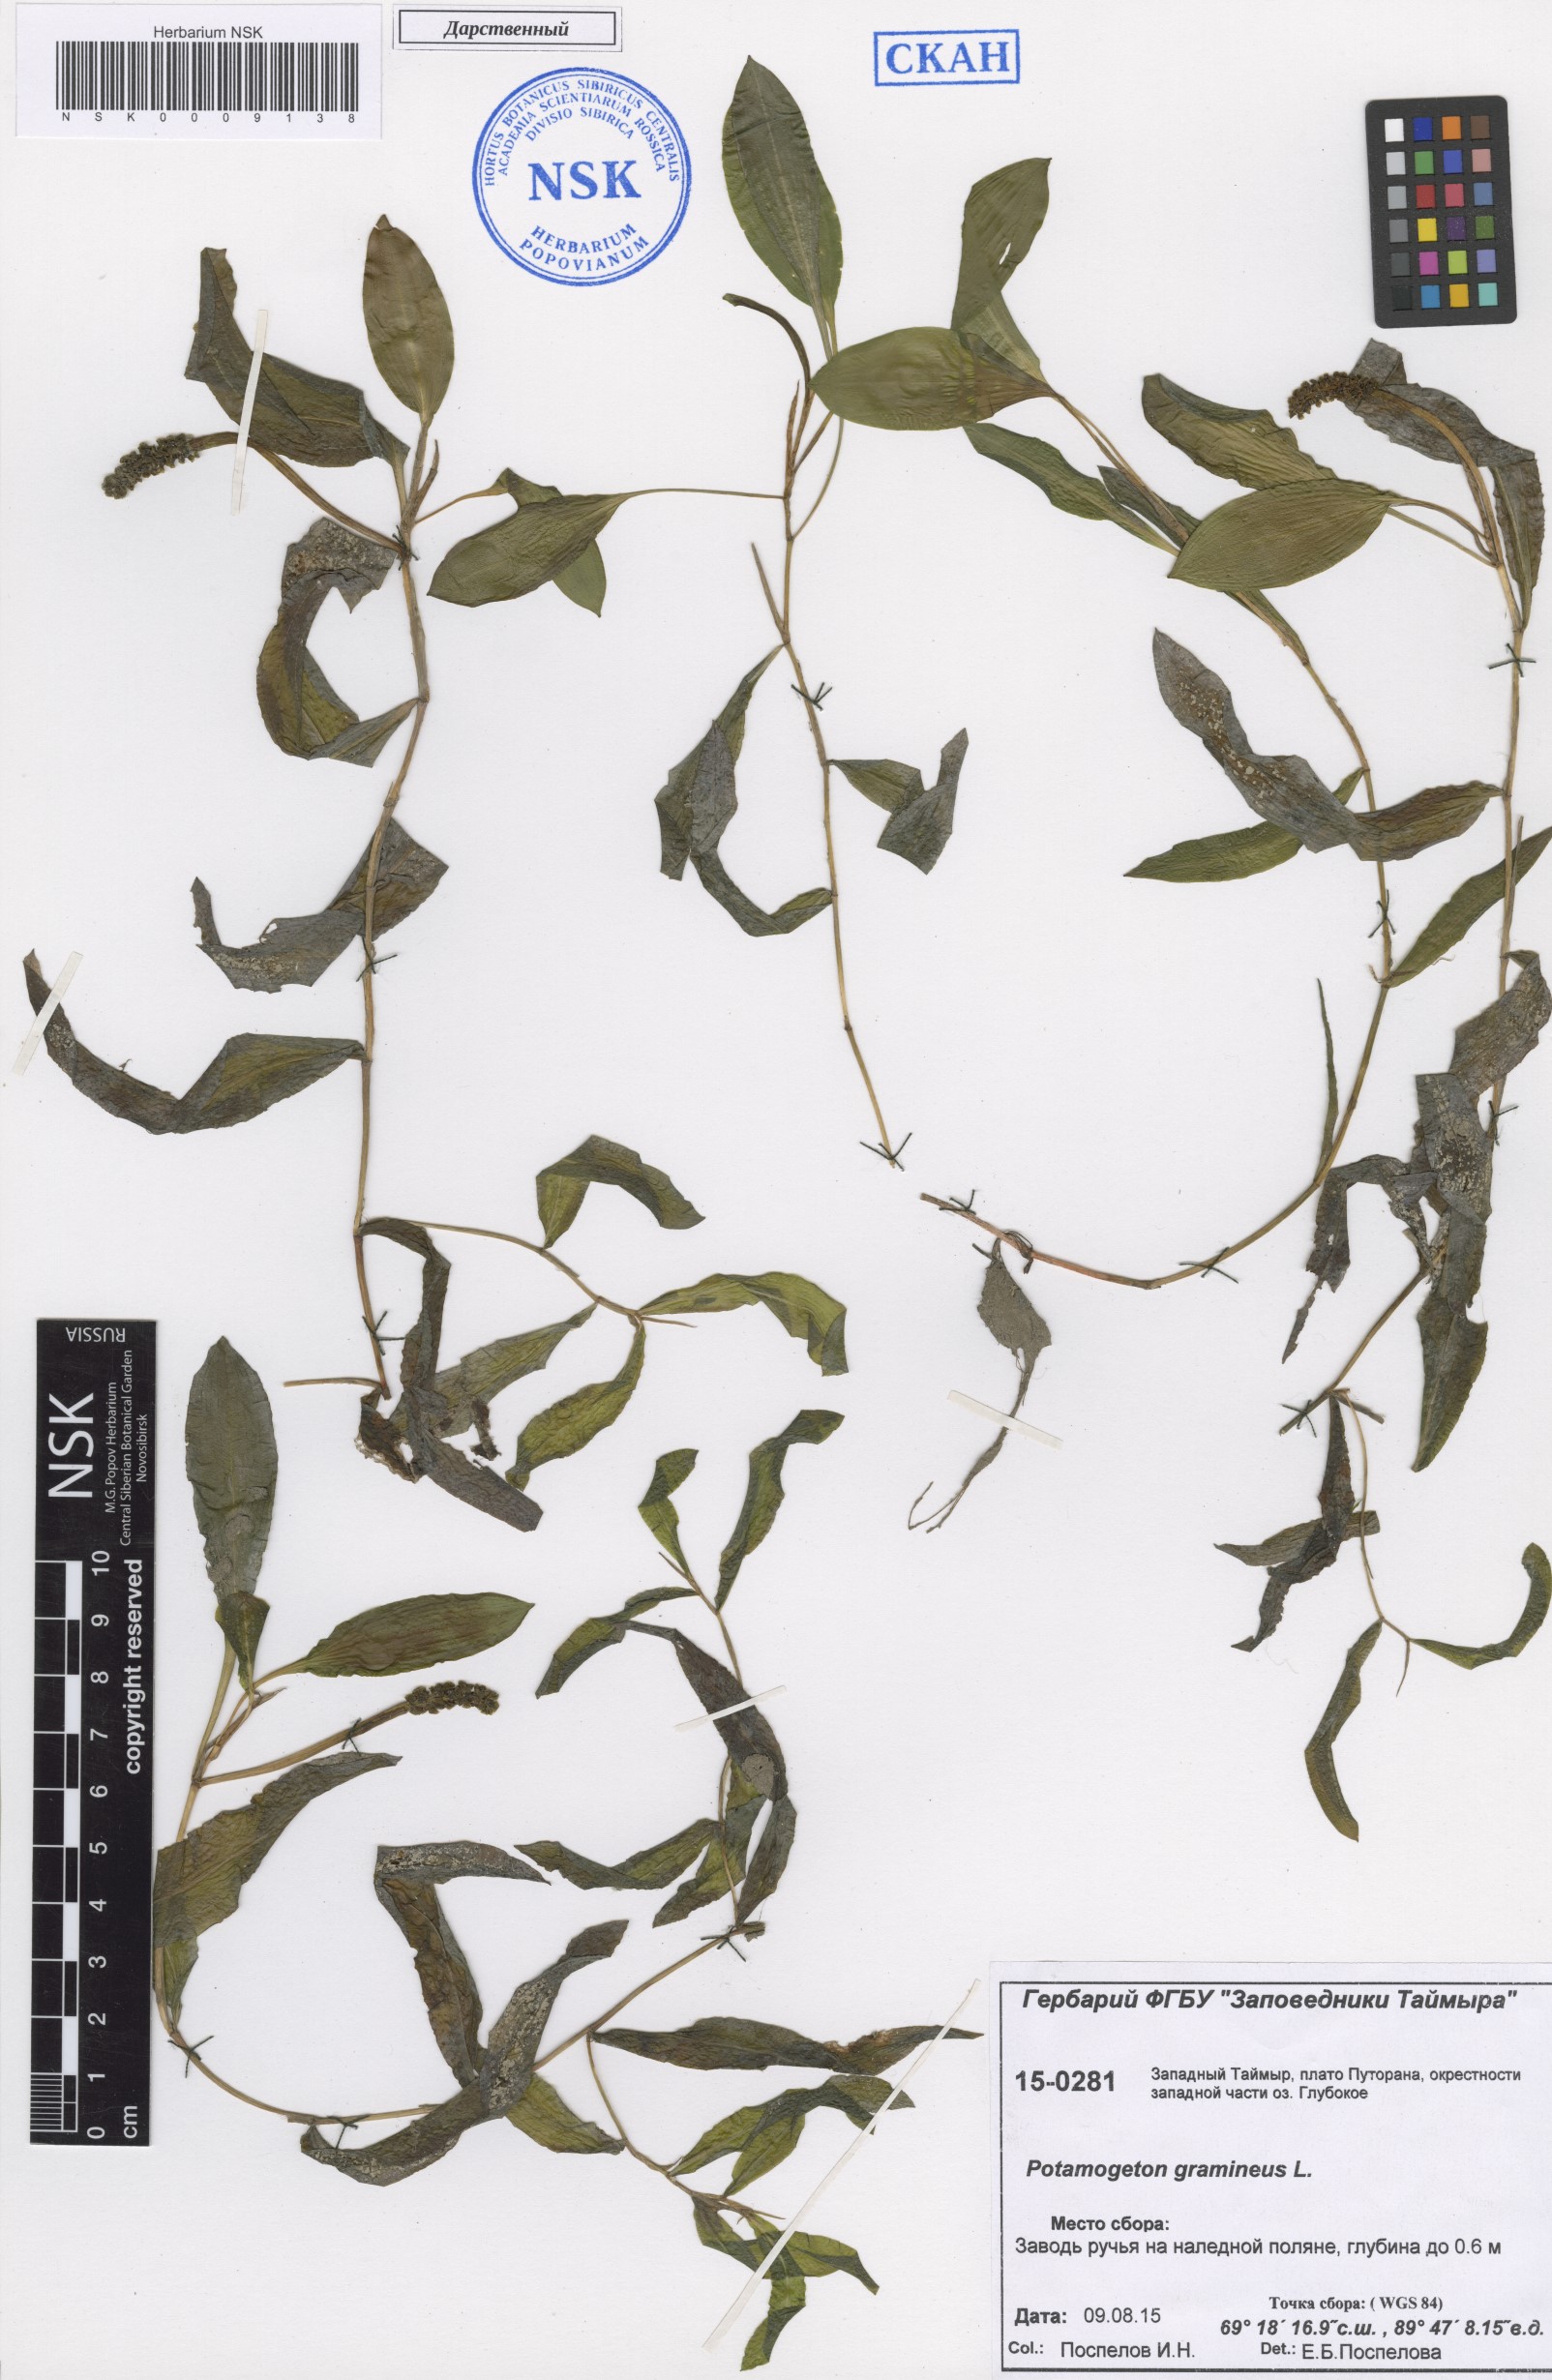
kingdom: Plantae
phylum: Tracheophyta
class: Liliopsida
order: Alismatales
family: Potamogetonaceae
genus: Potamogeton
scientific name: Potamogeton gramineus
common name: Various-leaved pondweed
